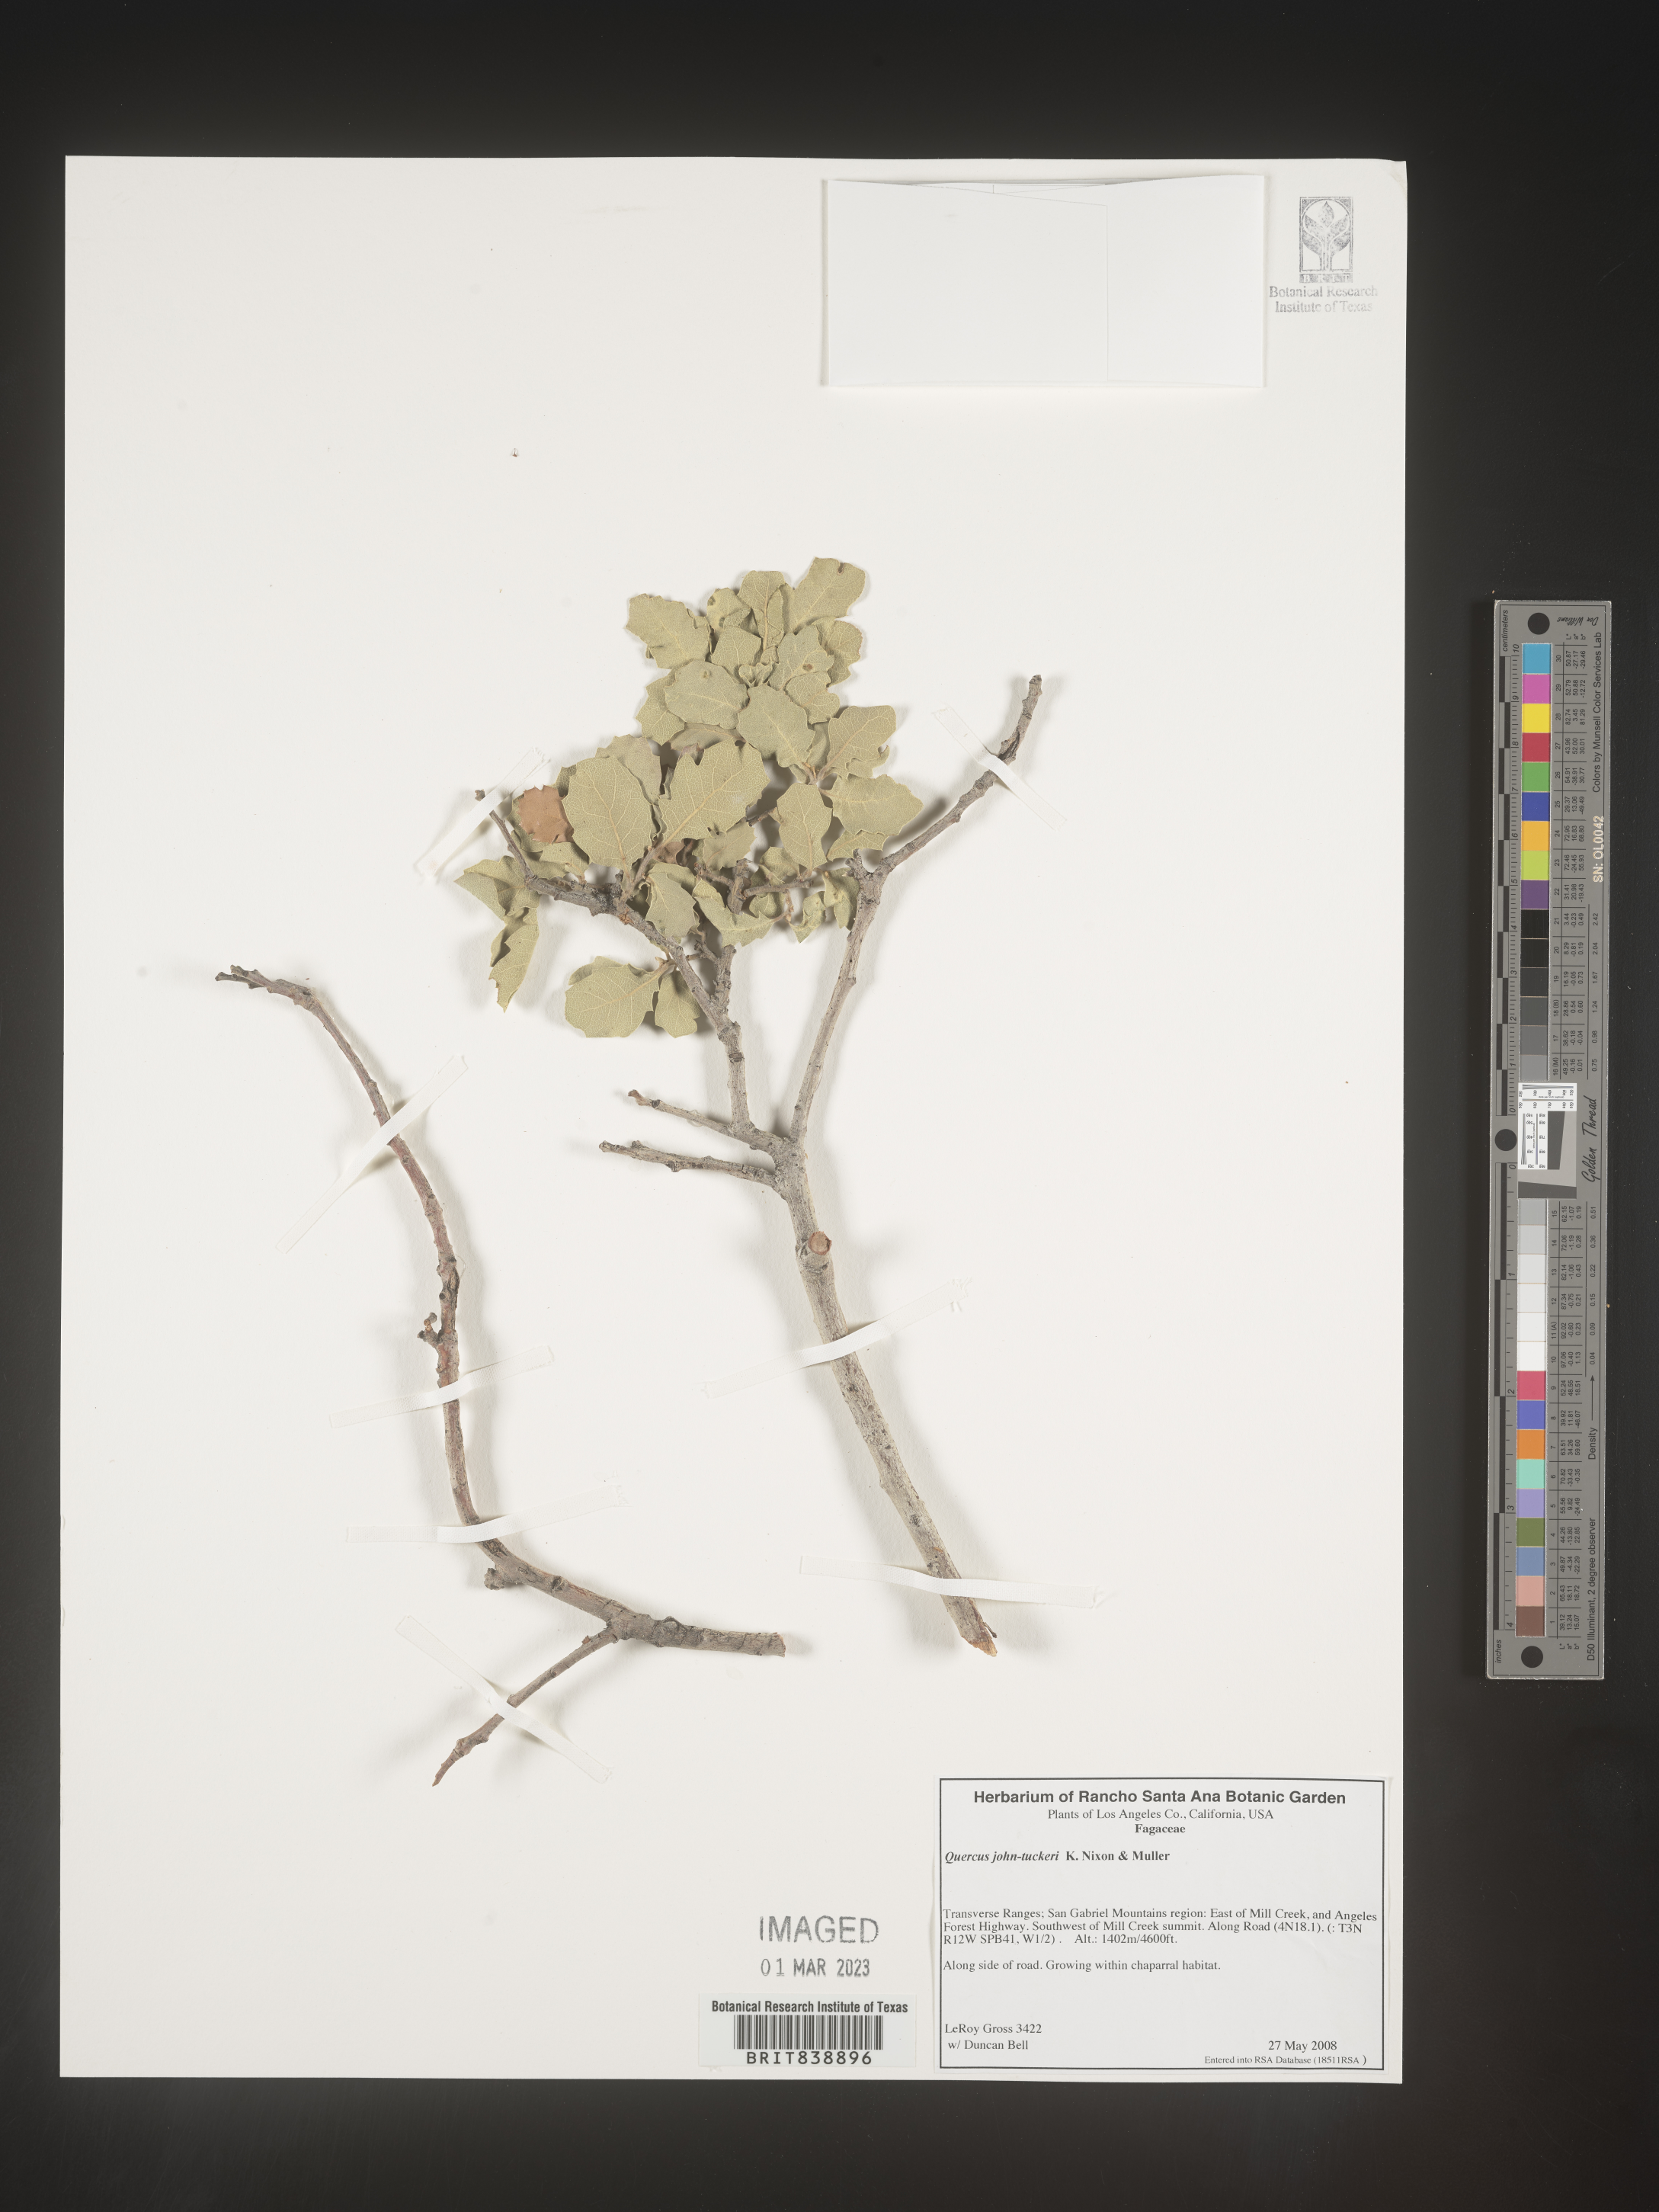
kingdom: Plantae
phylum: Tracheophyta
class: Magnoliopsida
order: Fagales
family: Fagaceae
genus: Quercus
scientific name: Quercus john-tuckeri
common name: Tucker's oak
